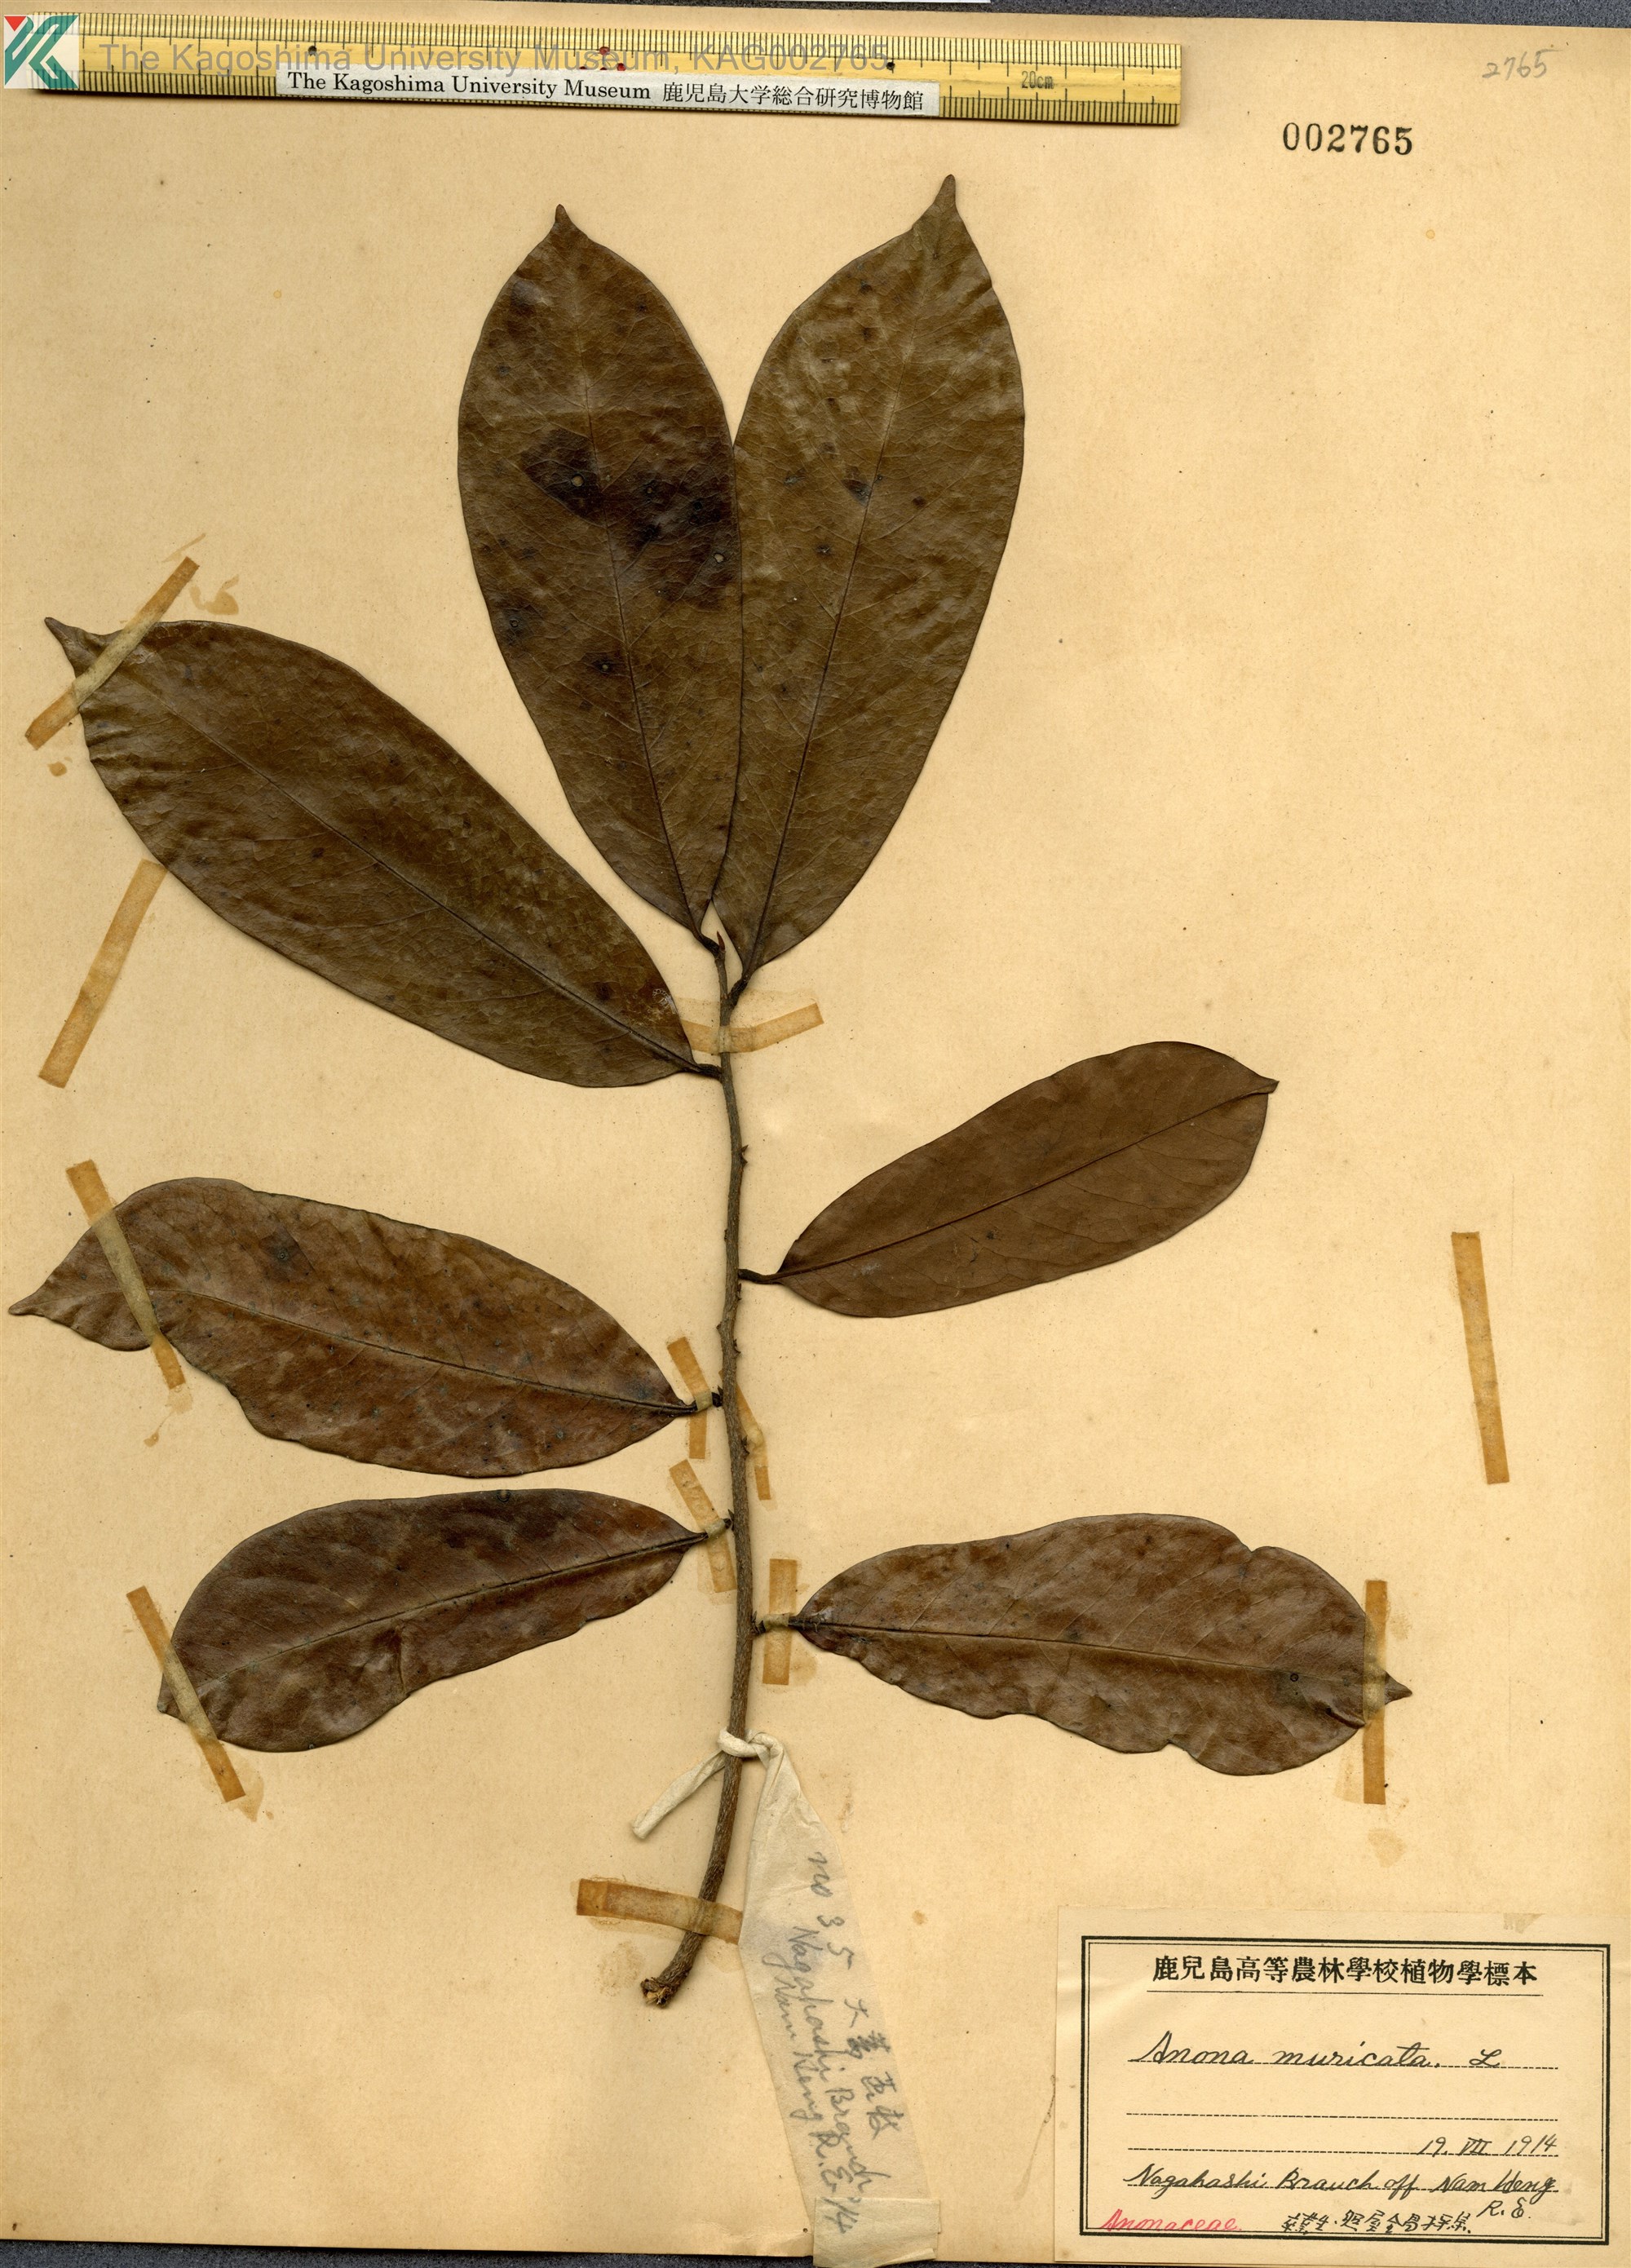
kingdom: Plantae
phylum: Tracheophyta
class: Magnoliopsida
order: Magnoliales
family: Annonaceae
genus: Annona
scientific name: Annona muricata
